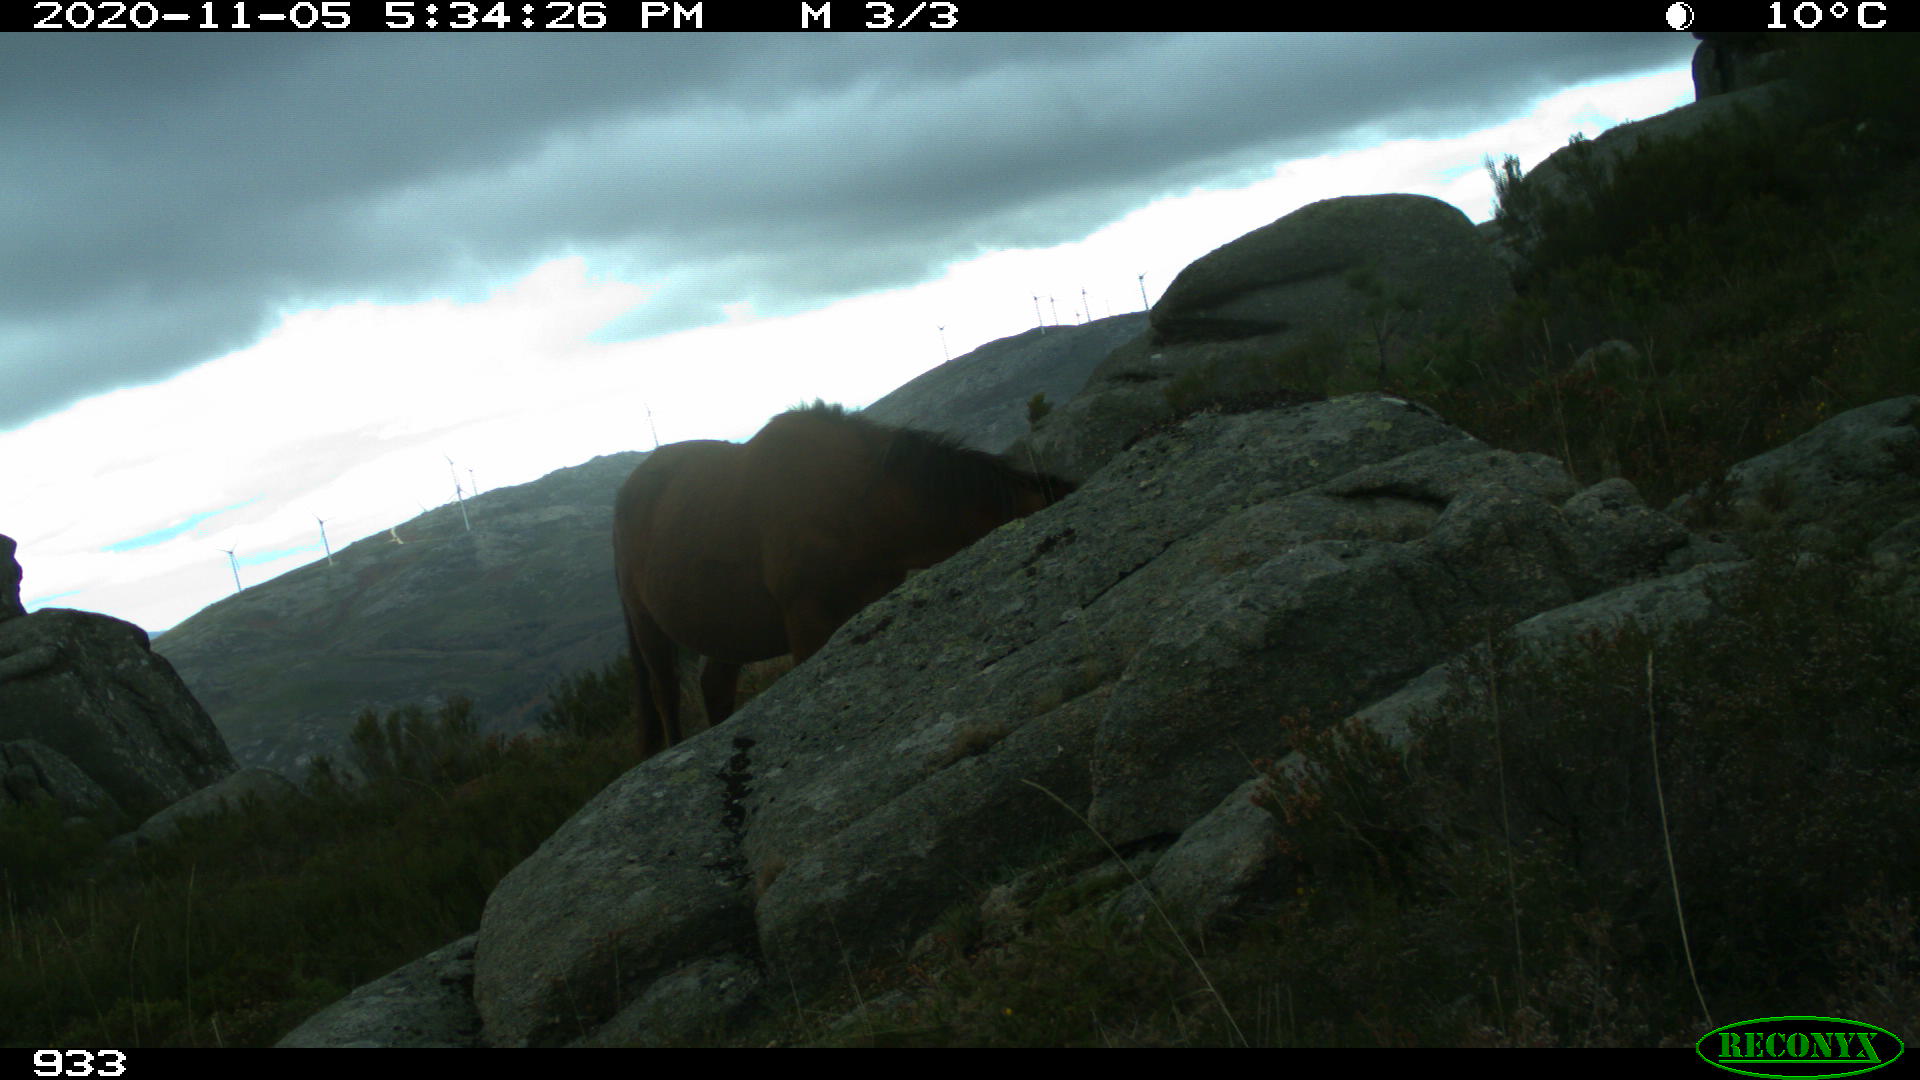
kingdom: Animalia
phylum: Chordata
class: Mammalia
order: Perissodactyla
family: Equidae
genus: Equus
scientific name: Equus caballus
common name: Horse
